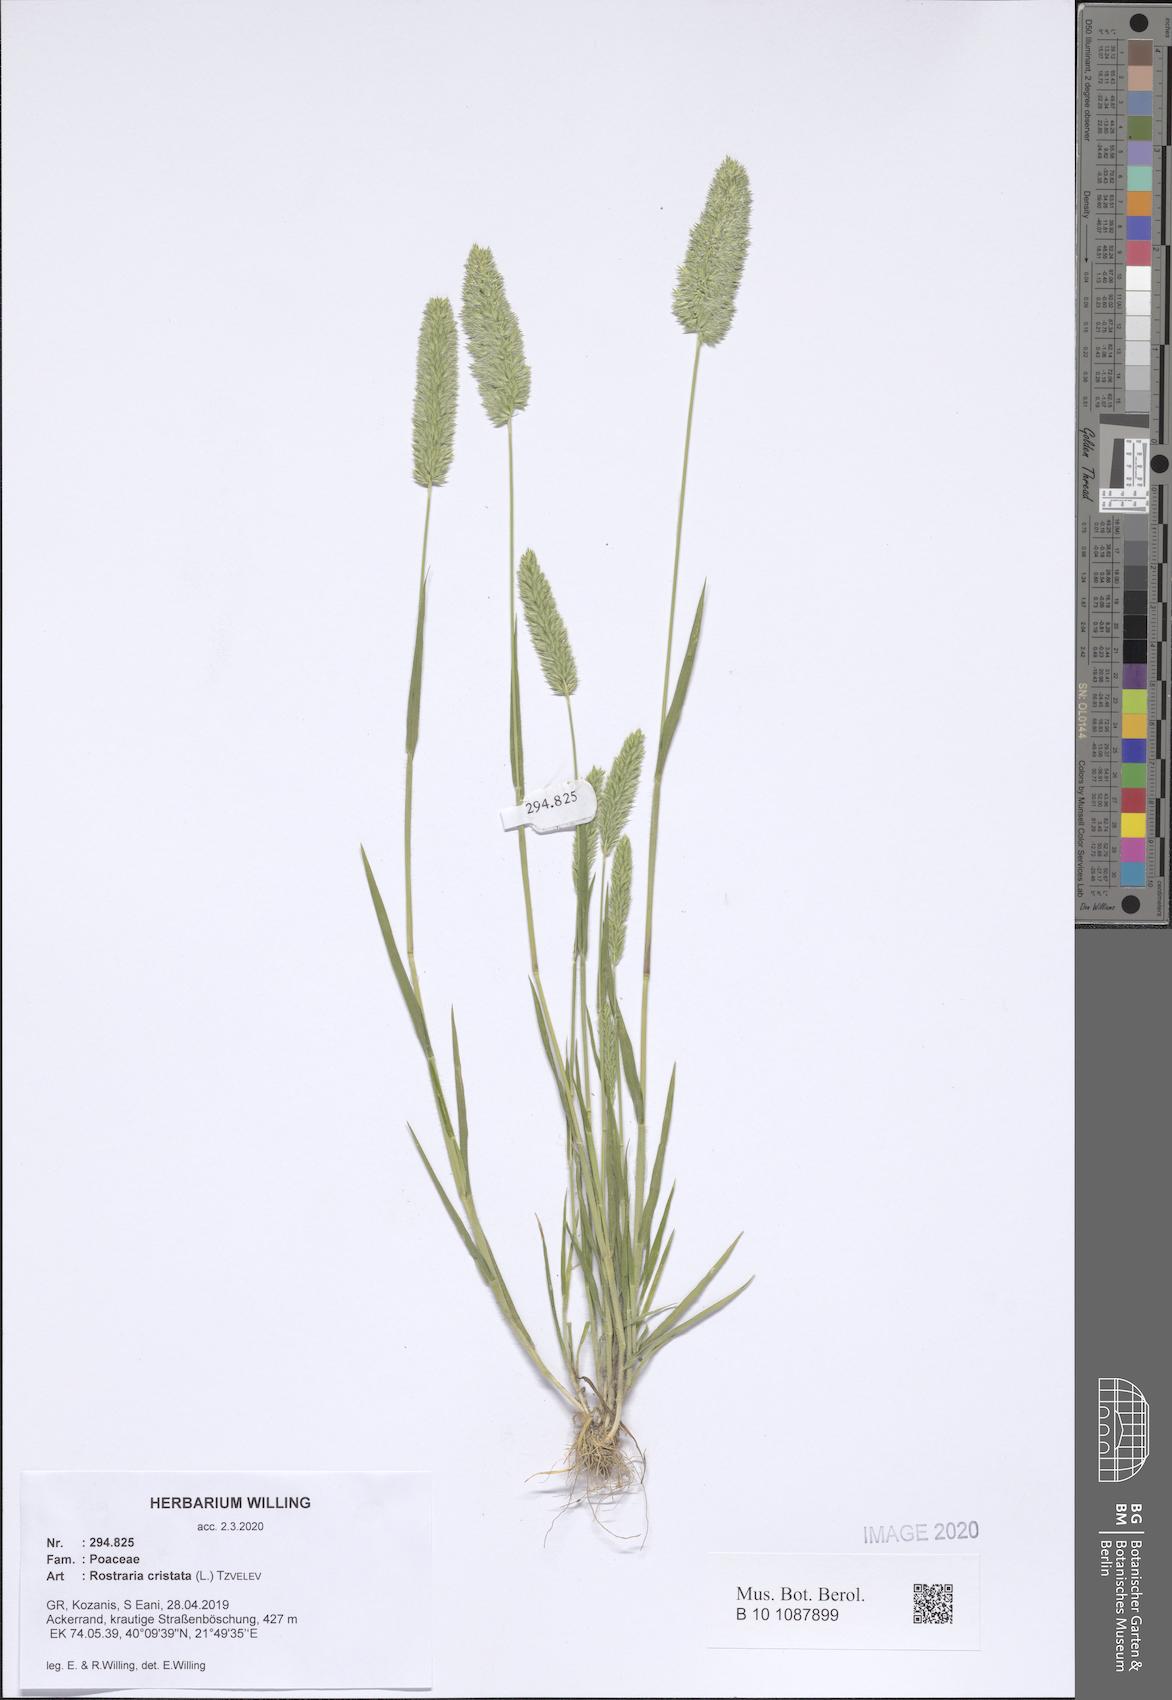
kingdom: Plantae
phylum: Tracheophyta
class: Liliopsida
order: Poales
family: Poaceae
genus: Rostraria
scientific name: Rostraria cristata
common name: Mediterranean hair-grass
